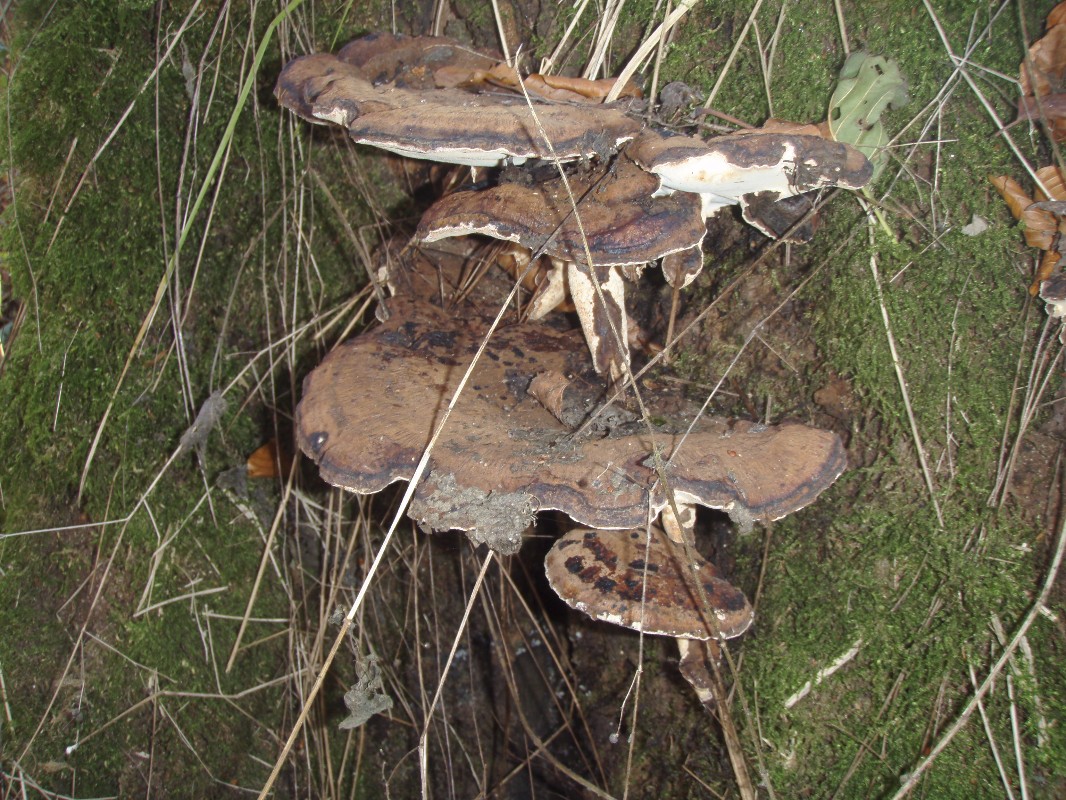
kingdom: Fungi
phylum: Basidiomycota
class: Agaricomycetes
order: Polyporales
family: Ischnodermataceae
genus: Ischnoderma
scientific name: Ischnoderma resinosum
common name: løv-tjæreporesvamp
